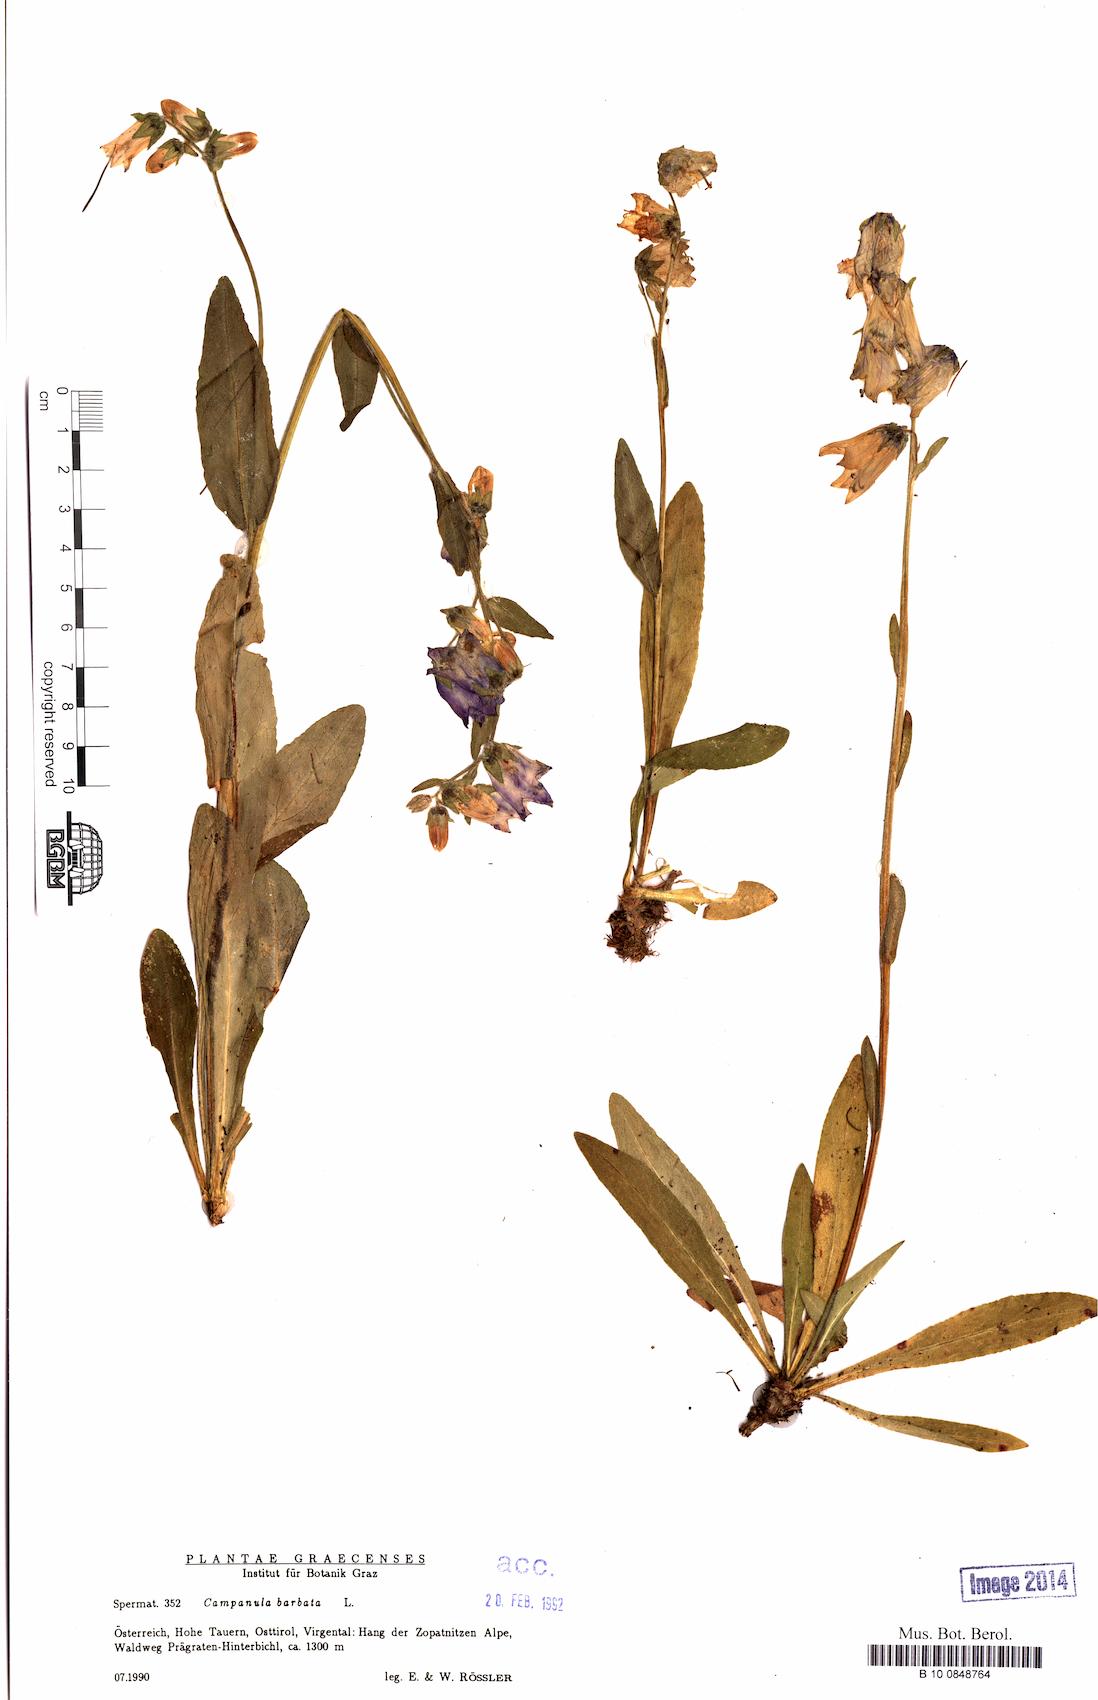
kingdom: Plantae
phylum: Tracheophyta
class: Magnoliopsida
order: Asterales
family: Campanulaceae
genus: Campanula
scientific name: Campanula barbata
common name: Bearded bellflower
